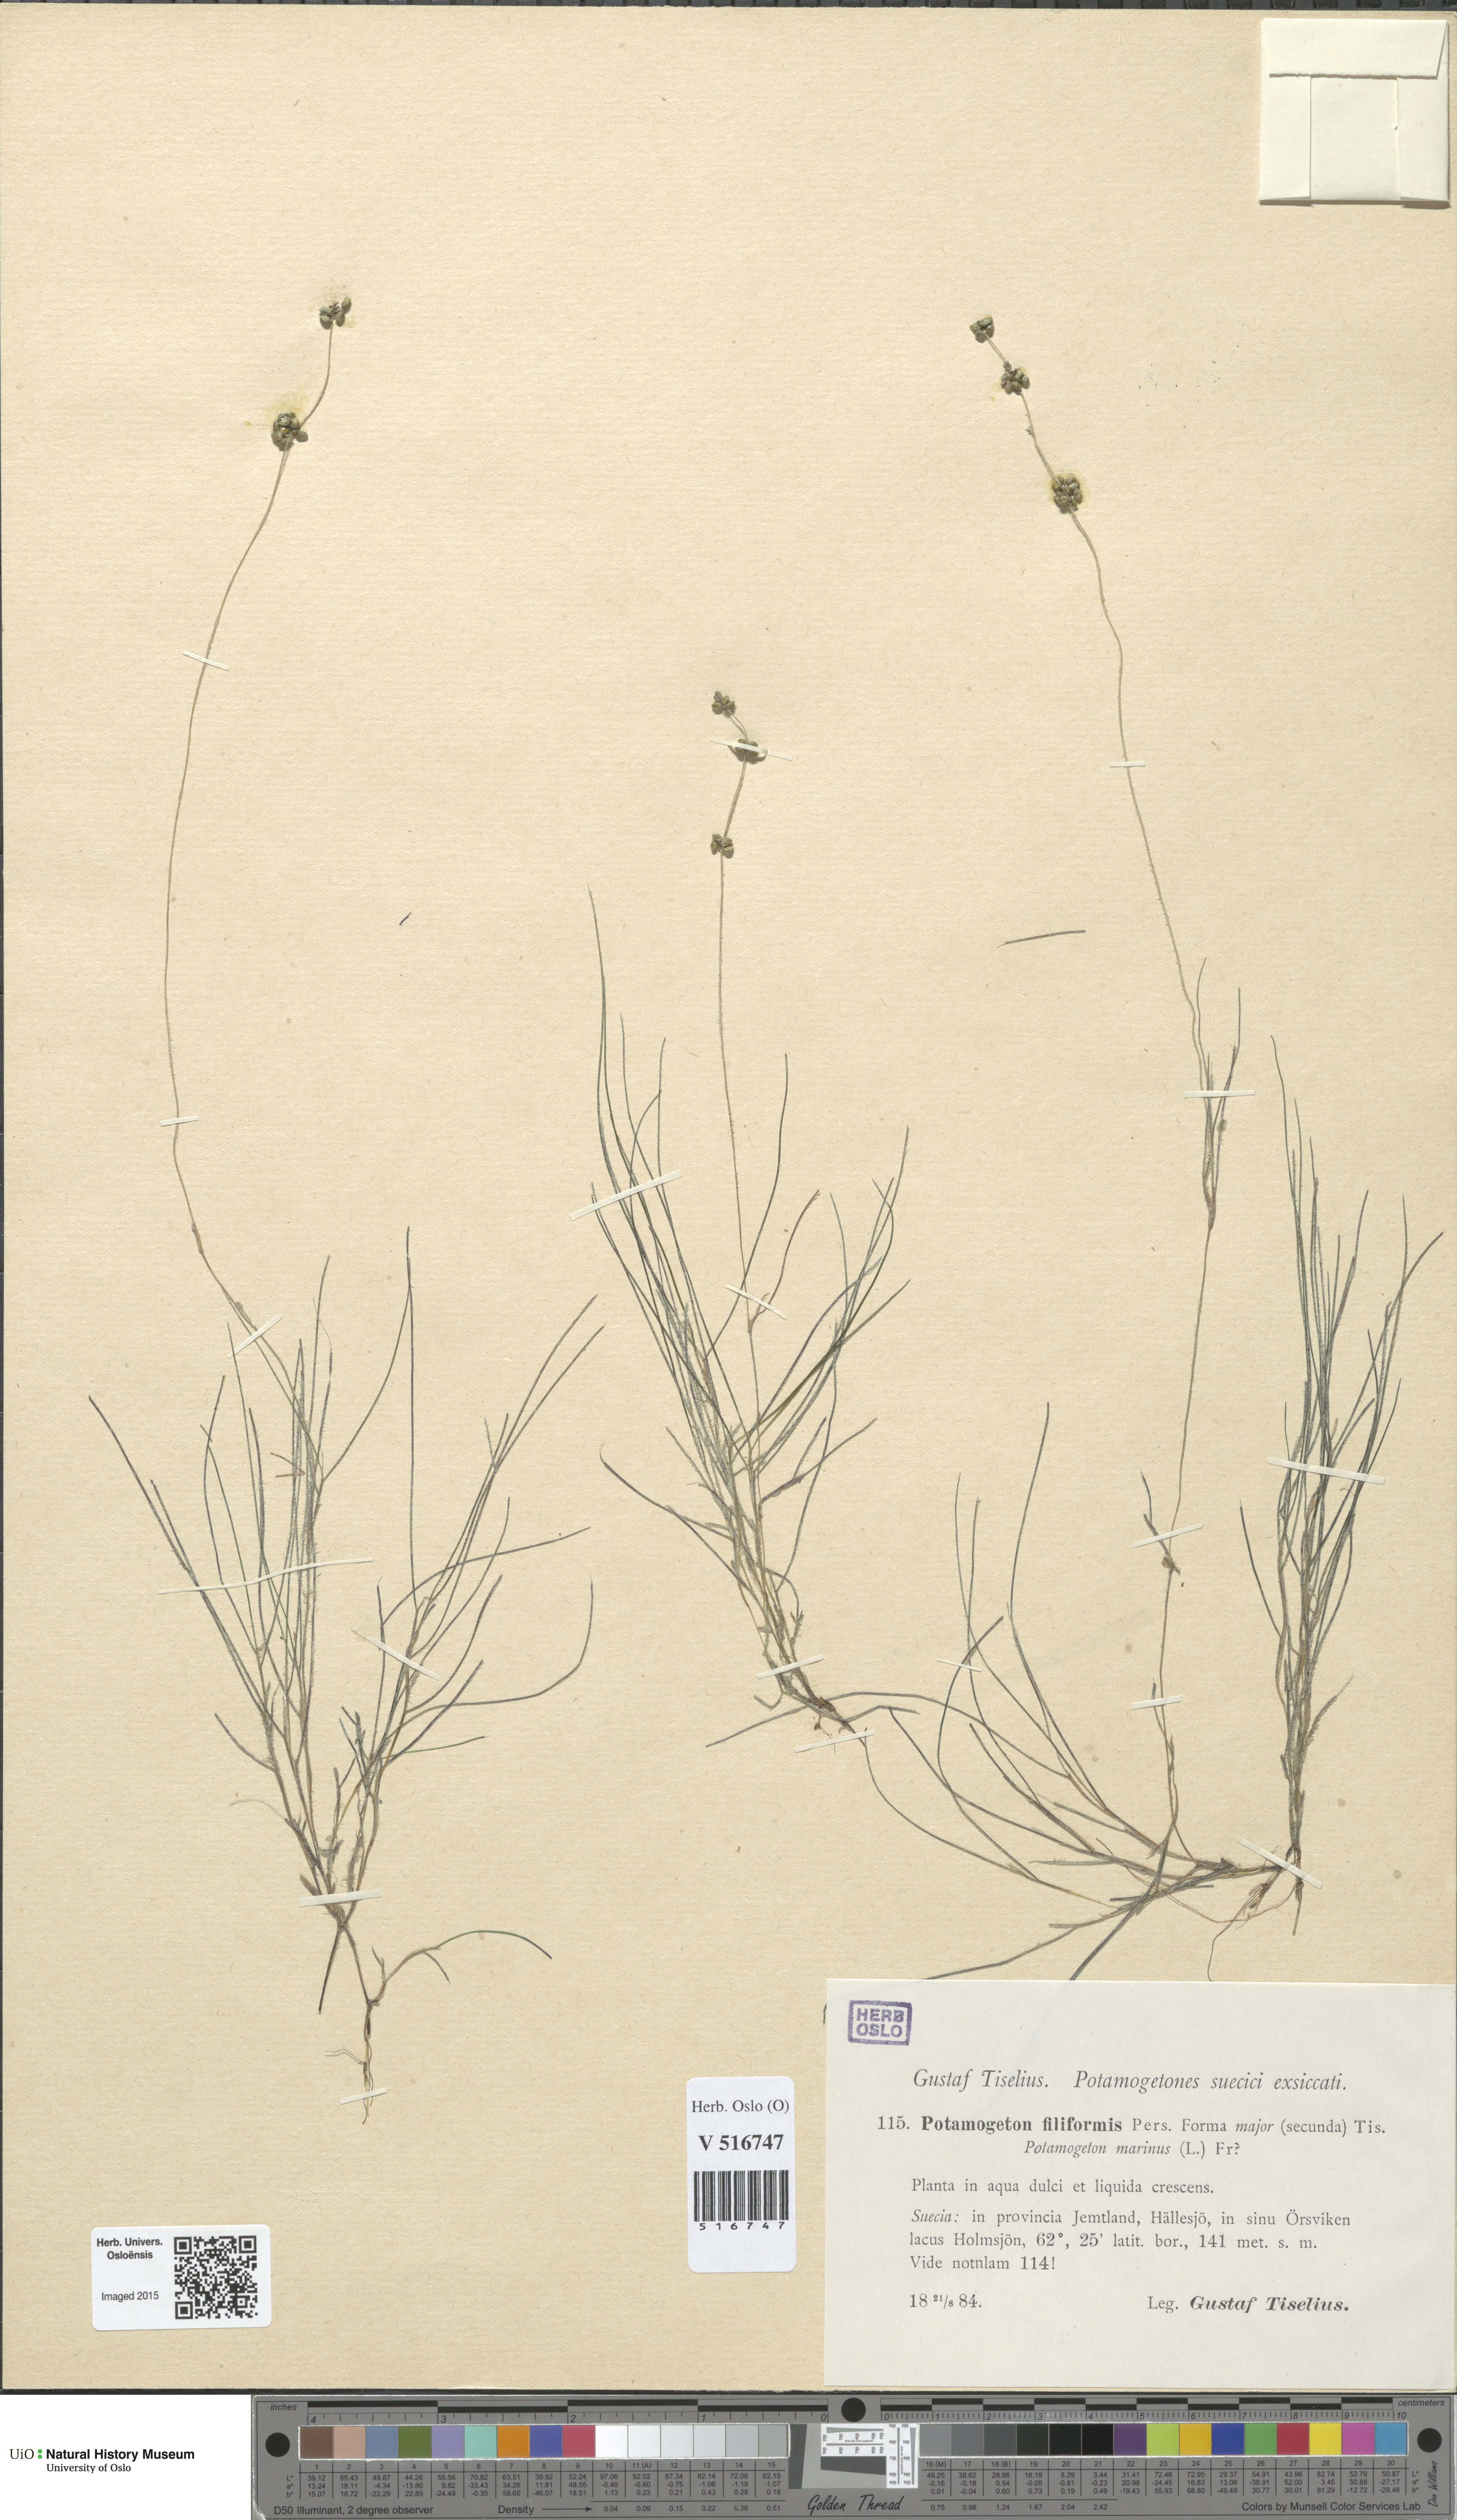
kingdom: Plantae
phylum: Tracheophyta
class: Liliopsida
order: Alismatales
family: Potamogetonaceae
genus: Stuckenia
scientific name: Stuckenia filiformis
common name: Alpine thread-leaved pondweed
